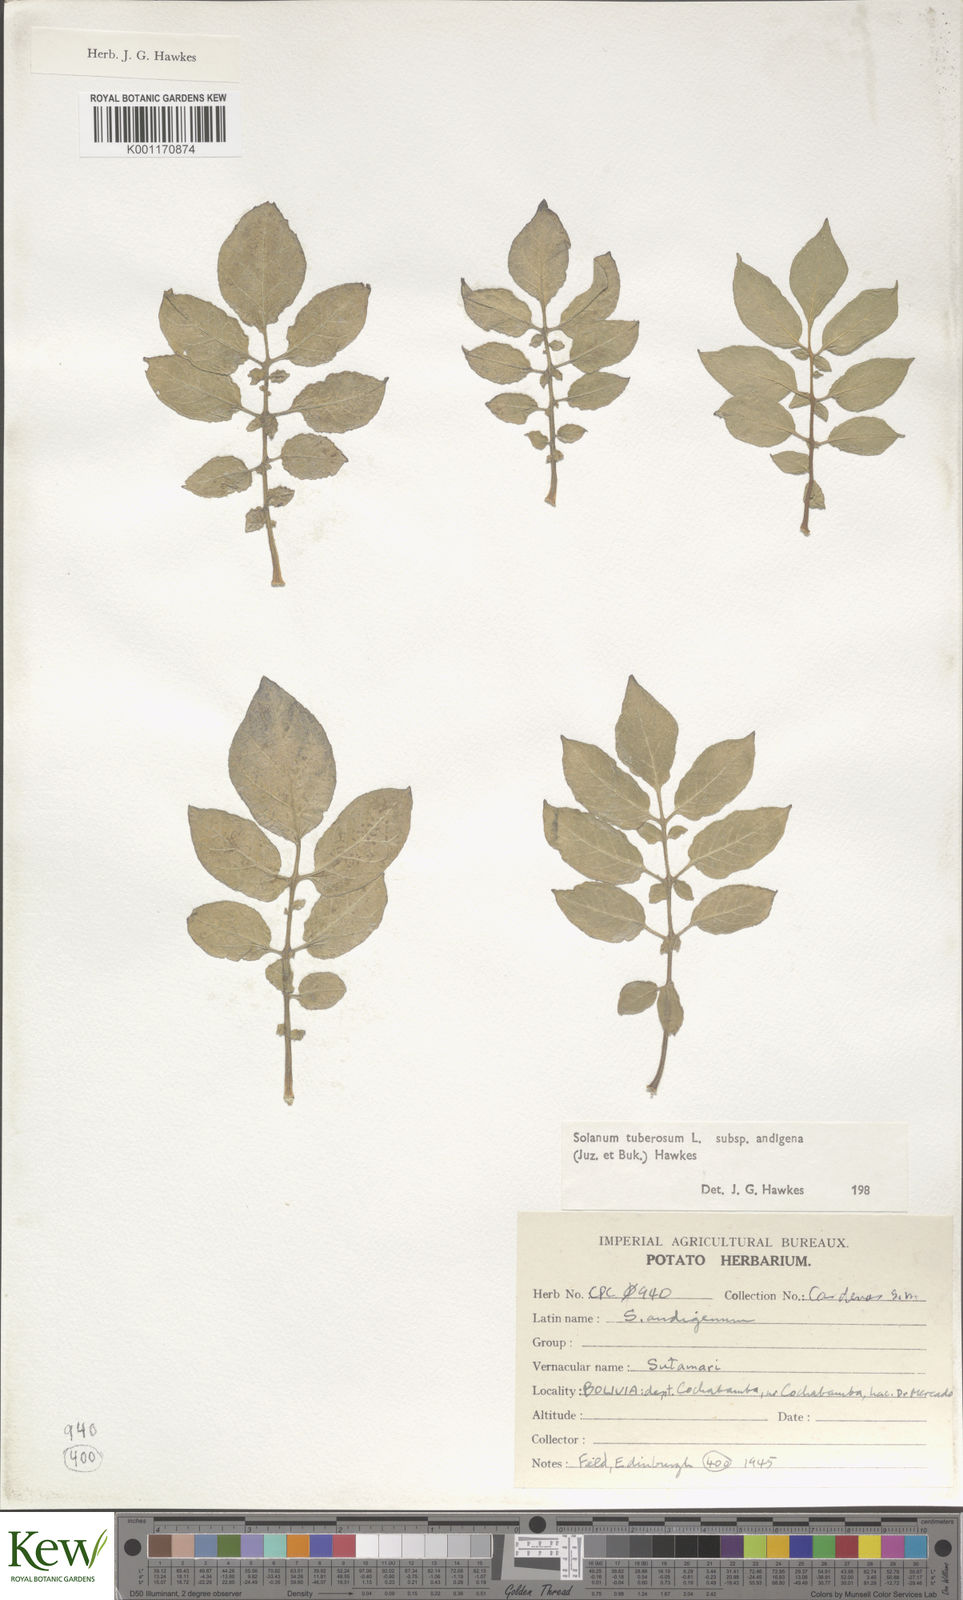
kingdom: Plantae
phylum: Tracheophyta
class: Magnoliopsida
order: Solanales
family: Solanaceae
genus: Solanum
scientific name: Solanum tuberosum
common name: Potato
